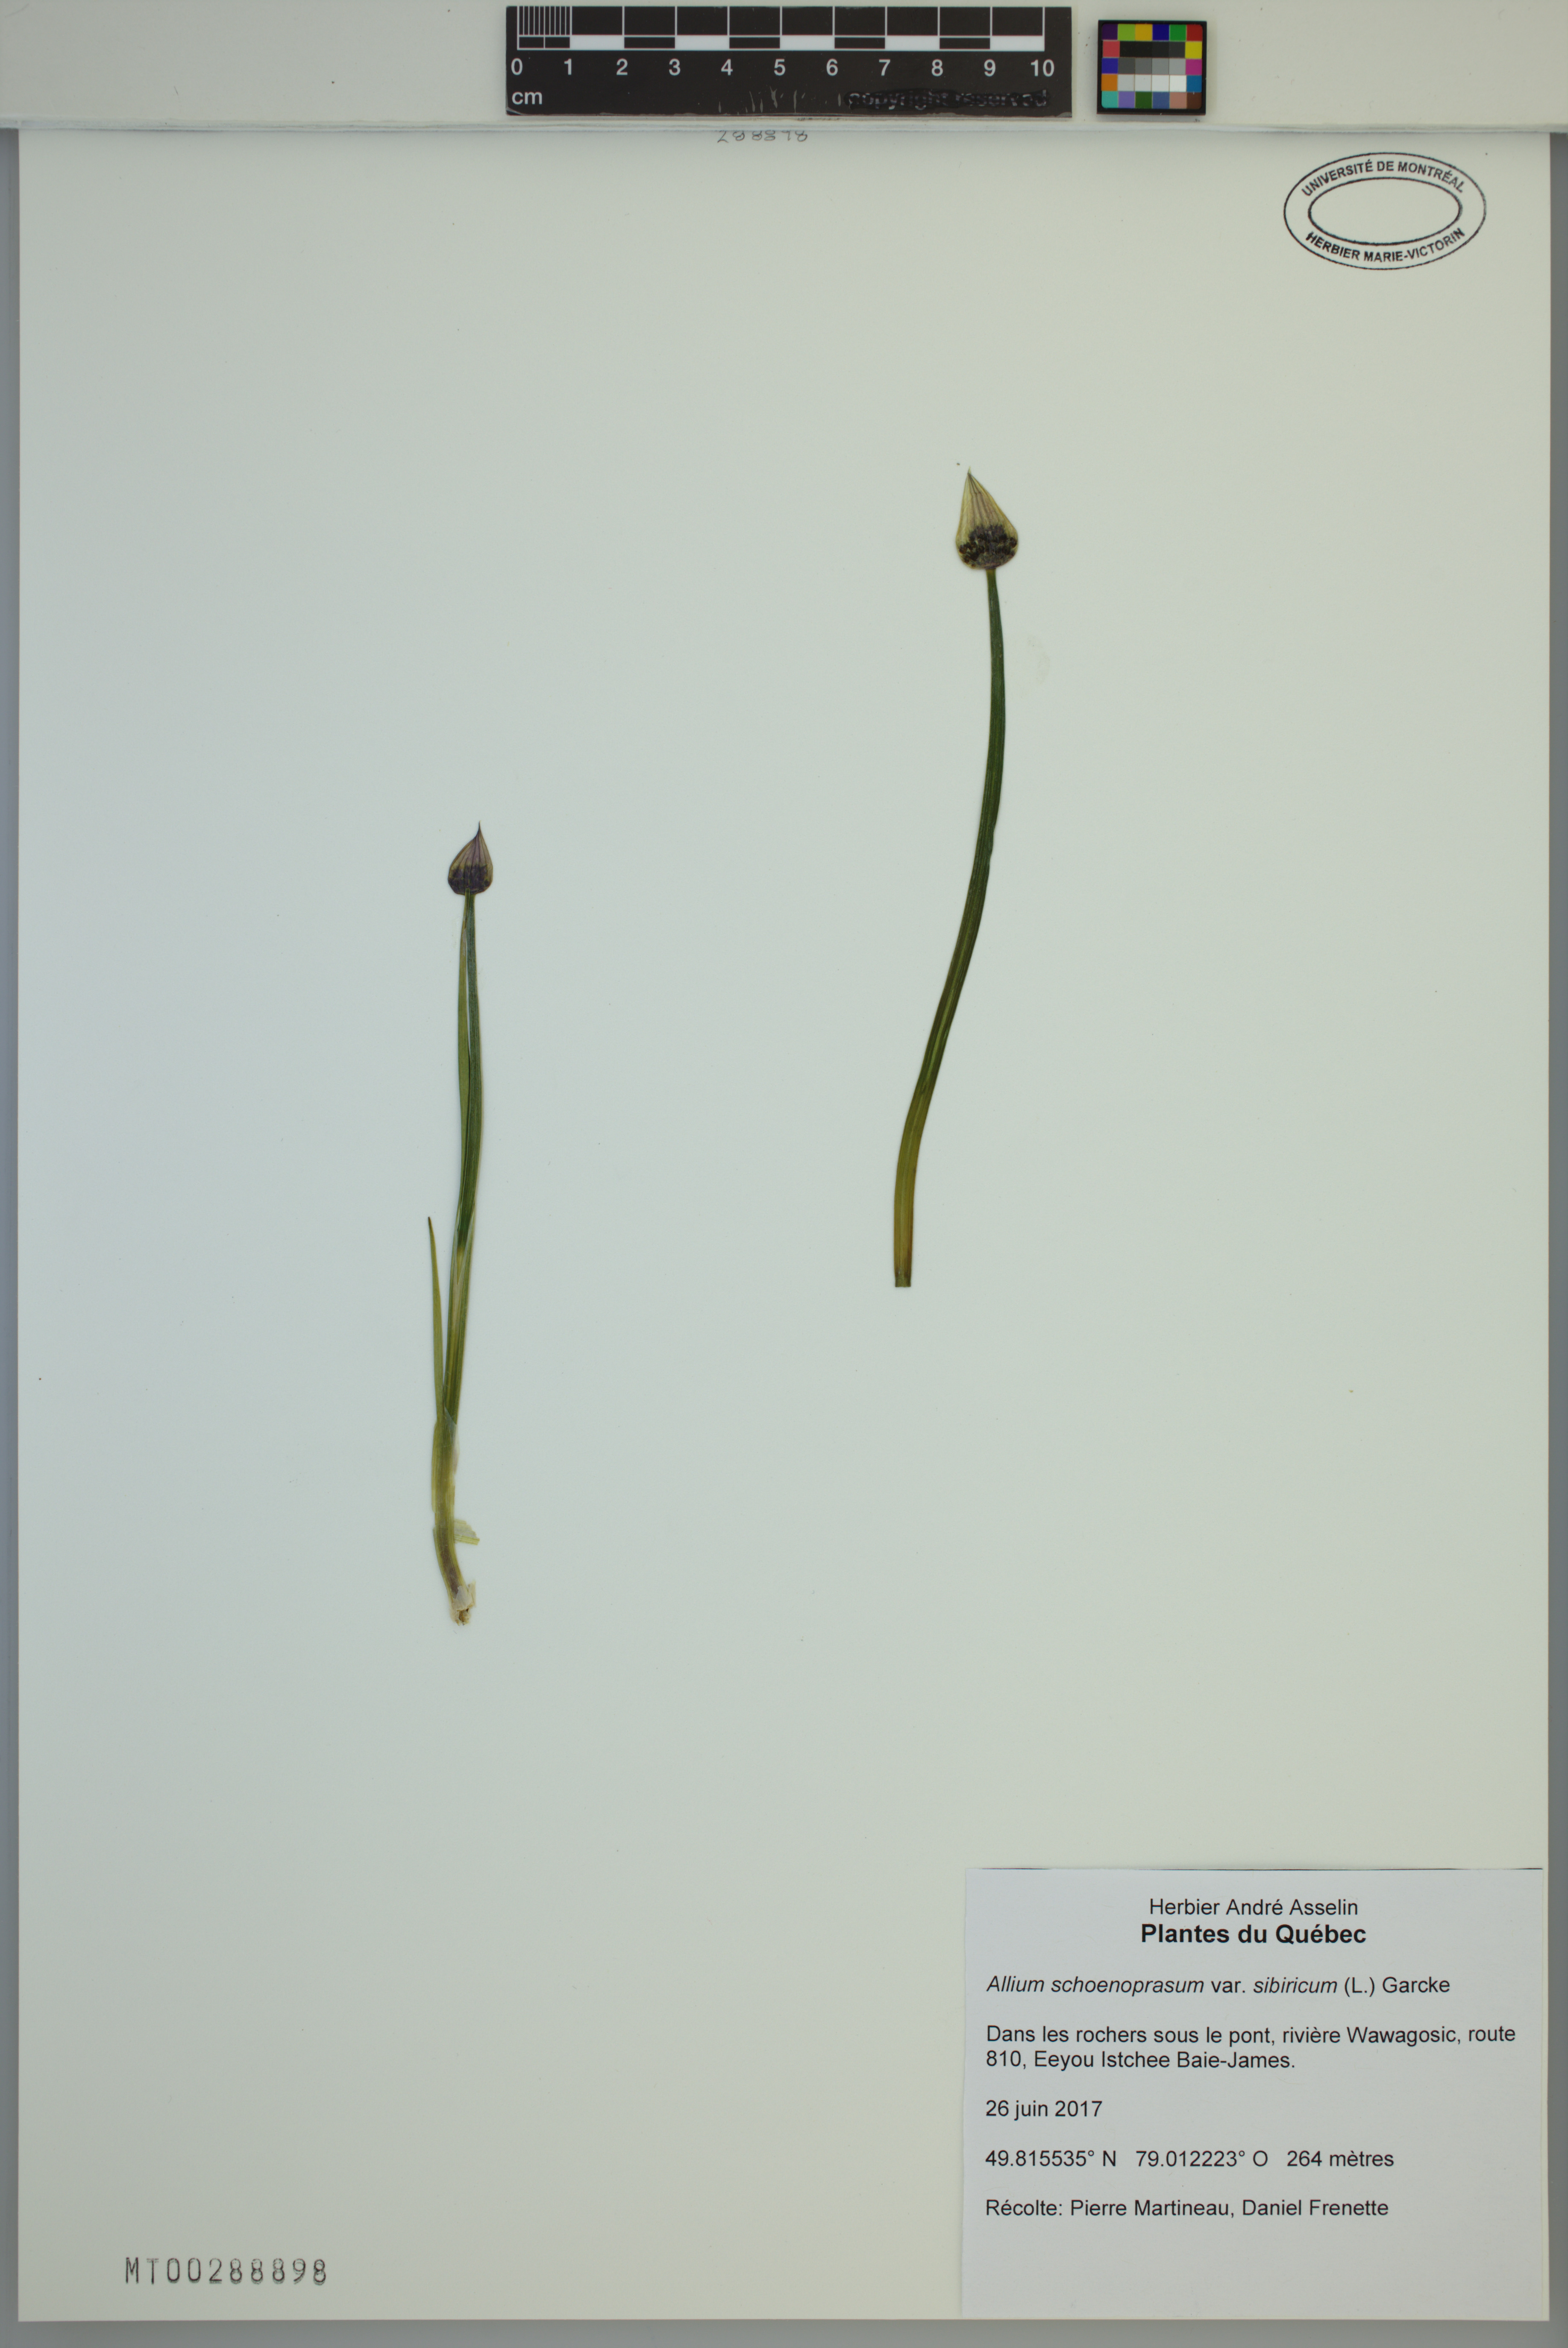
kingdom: Plantae
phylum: Tracheophyta
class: Liliopsida
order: Asparagales
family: Amaryllidaceae
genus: Allium
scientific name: Allium schoenoprasum
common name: Chives
